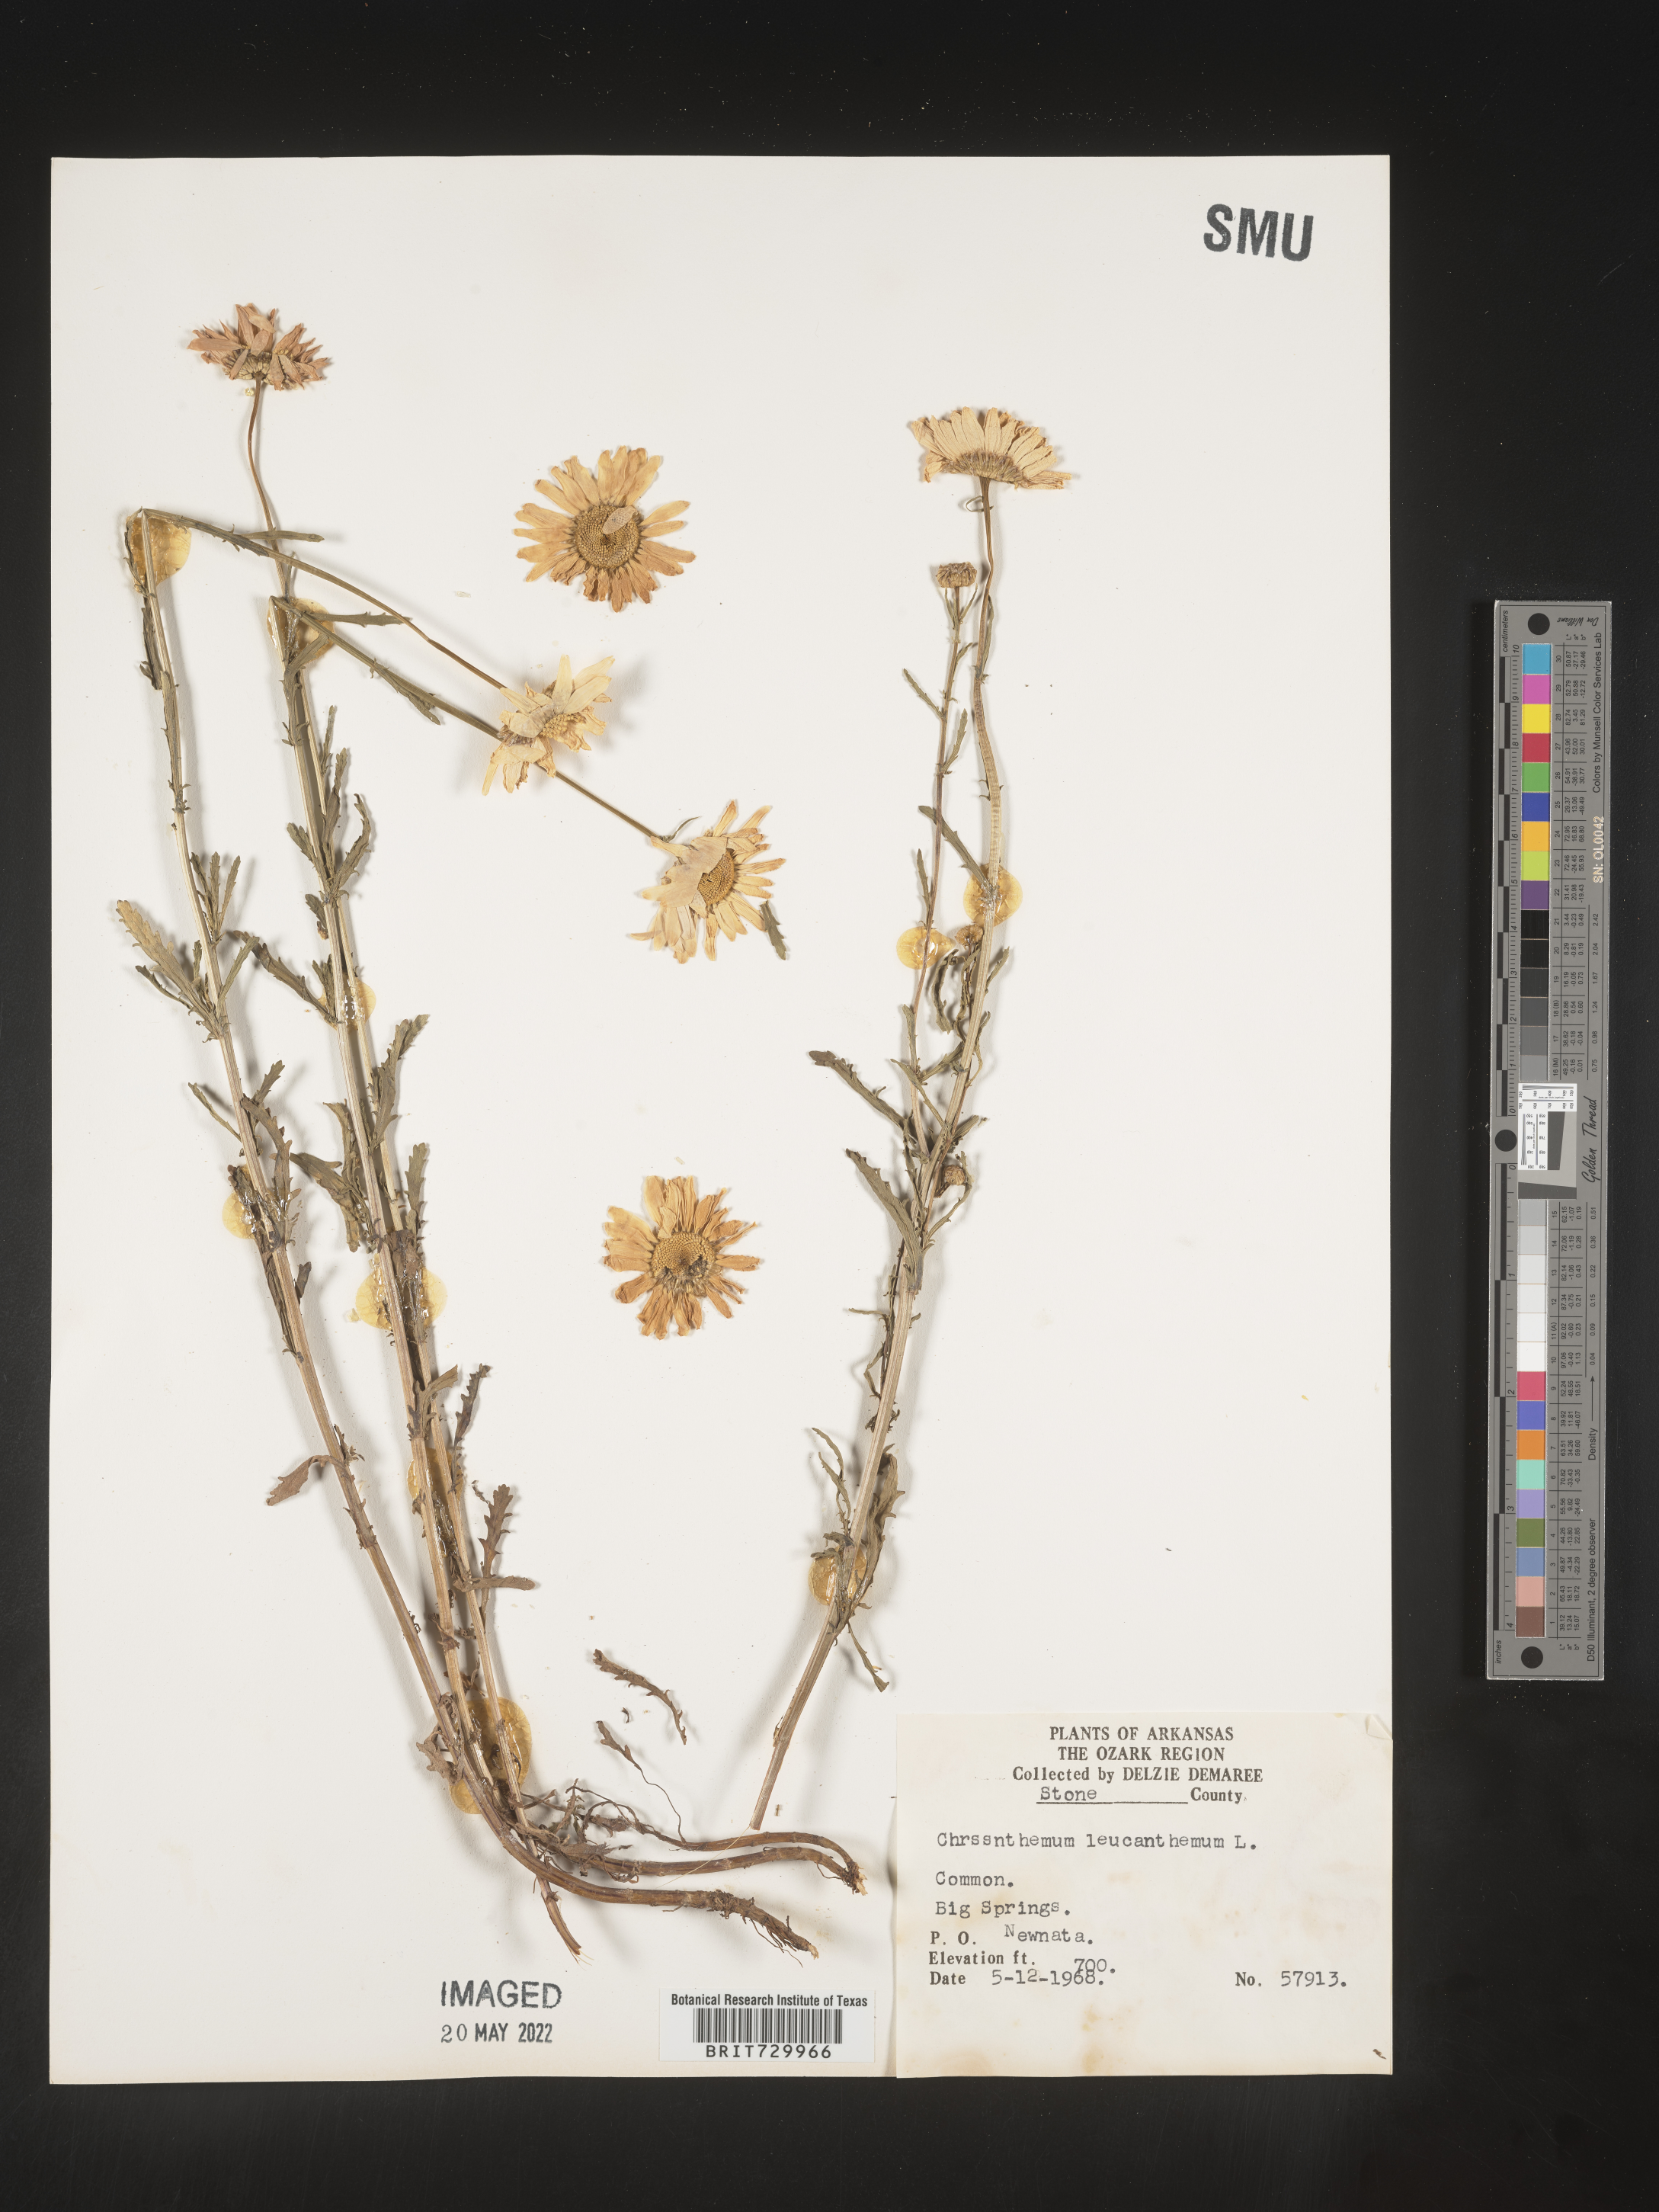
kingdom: Plantae
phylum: Tracheophyta
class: Magnoliopsida
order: Asterales
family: Asteraceae
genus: Leucanthemum
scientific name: Leucanthemum vulgare
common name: Oxeye daisy
